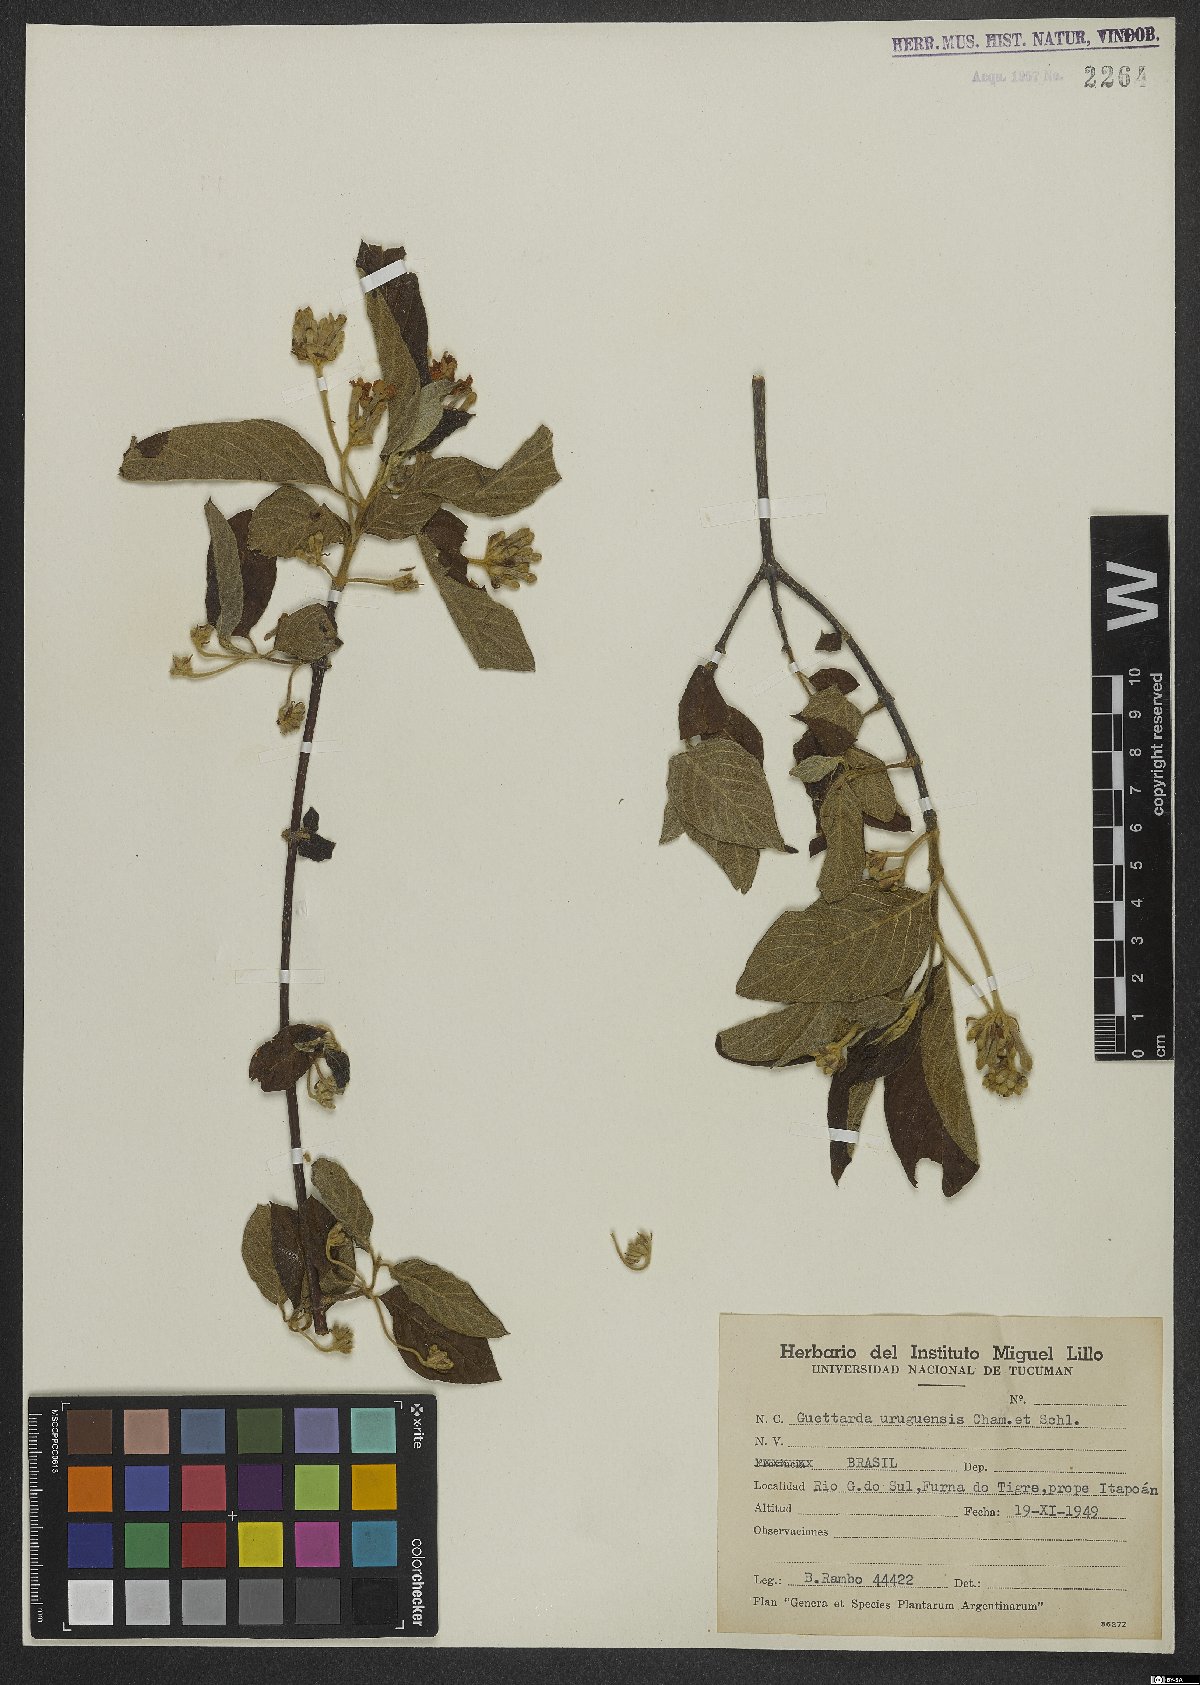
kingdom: Plantae
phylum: Tracheophyta
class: Magnoliopsida
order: Gentianales
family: Rubiaceae
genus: Guettarda
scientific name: Guettarda uruguensis
